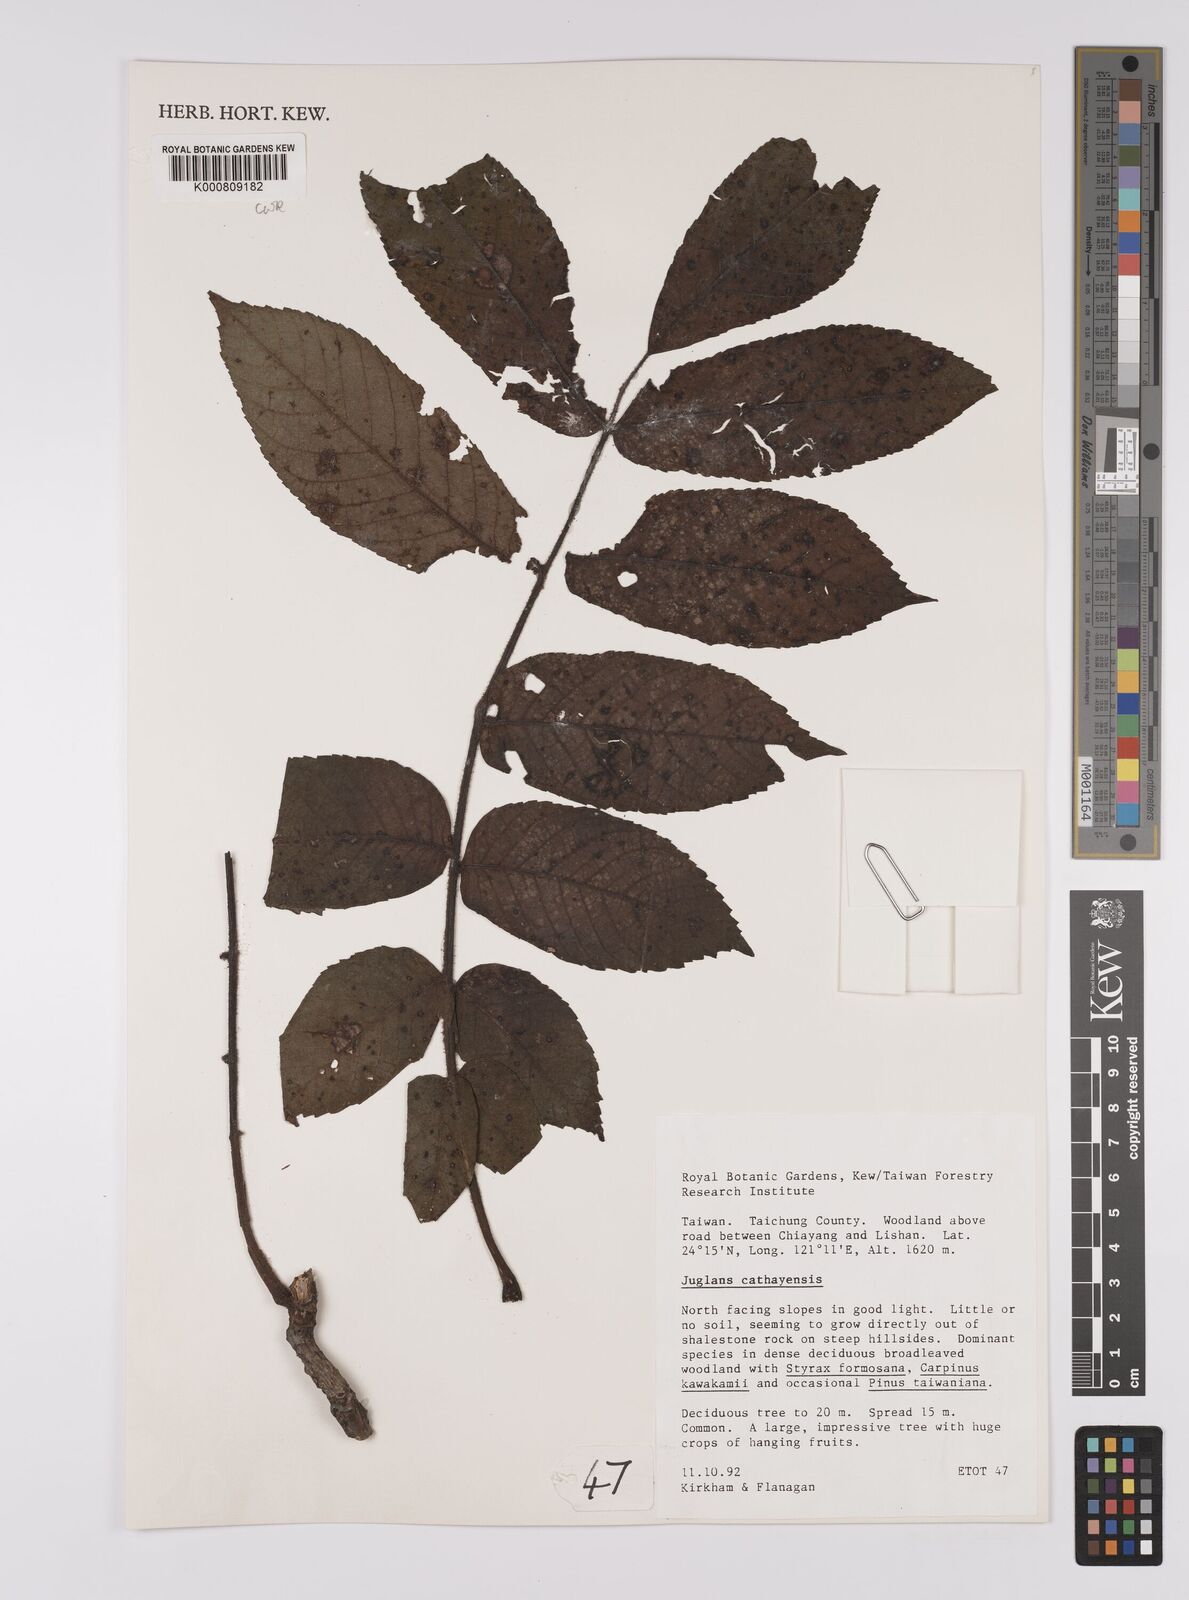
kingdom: Plantae
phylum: Tracheophyta
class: Magnoliopsida
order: Fagales
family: Juglandaceae
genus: Juglans
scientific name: Juglans mandshurica
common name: Manchurian walnut
